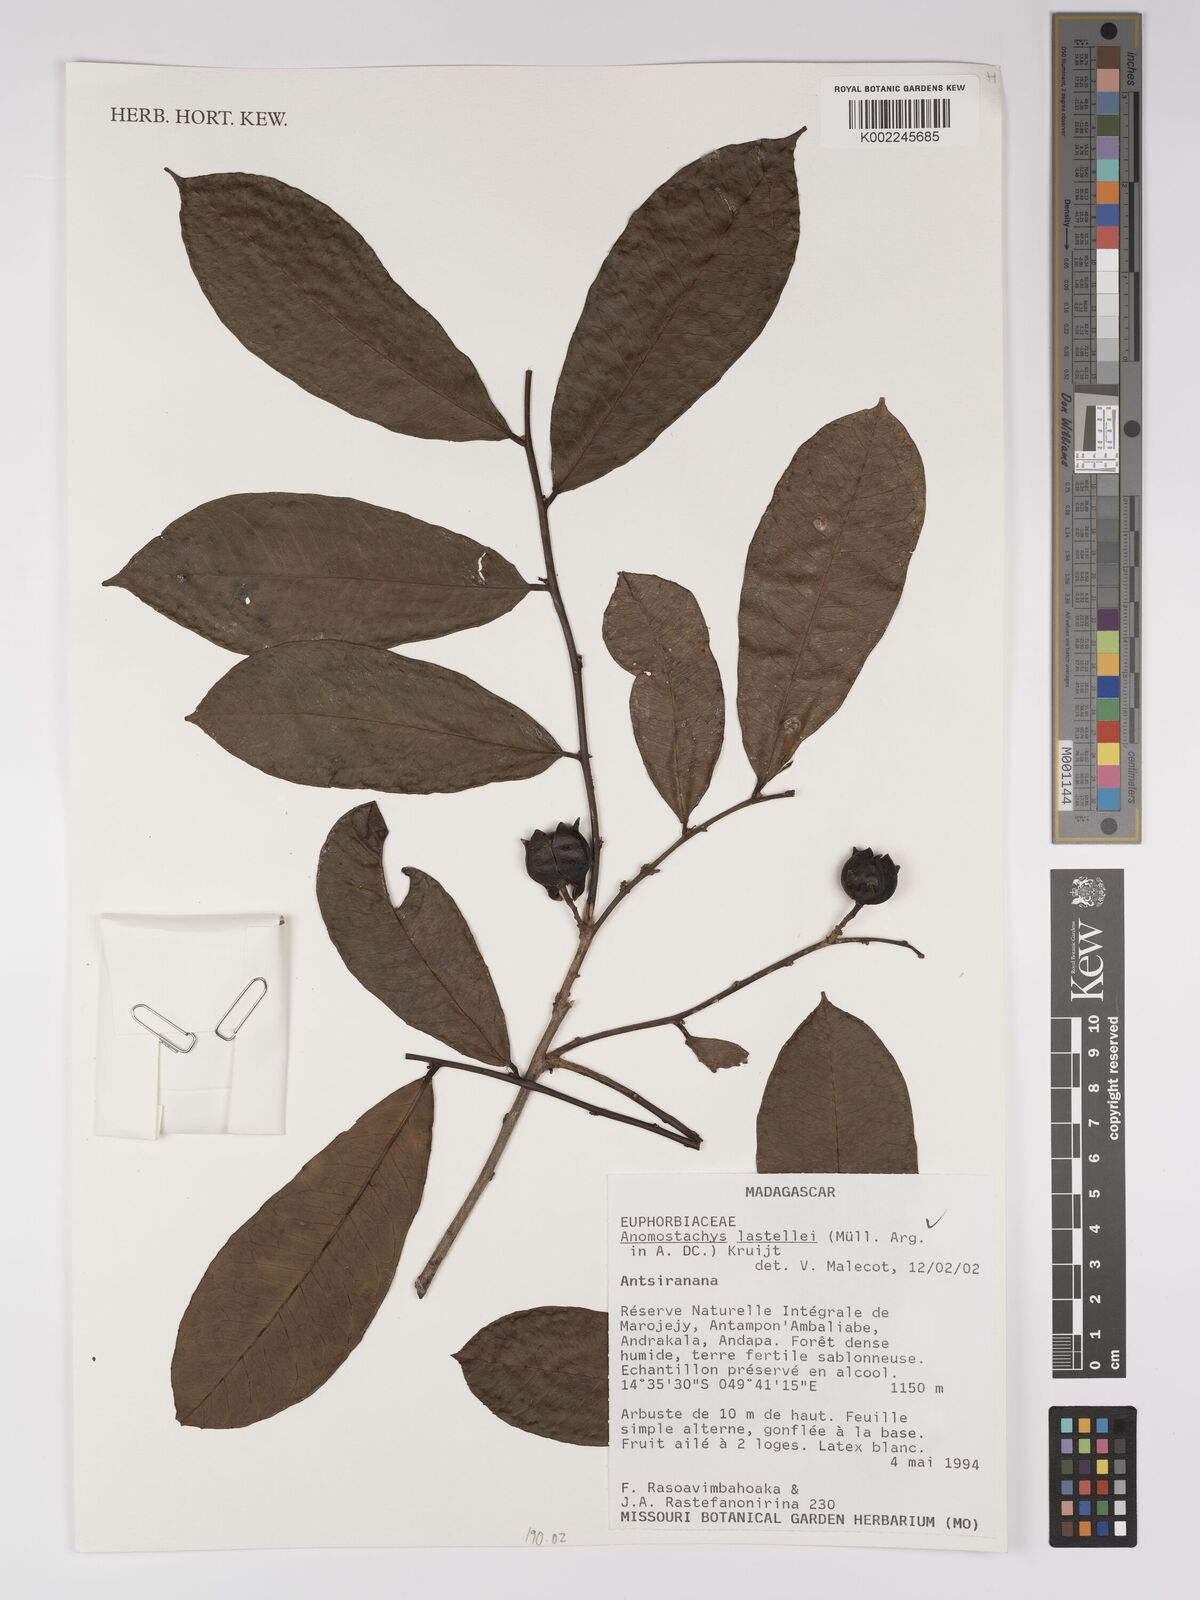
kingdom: Plantae
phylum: Tracheophyta
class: Magnoliopsida
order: Malpighiales
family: Euphorbiaceae
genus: Anomostachys
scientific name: Anomostachys lastellei
